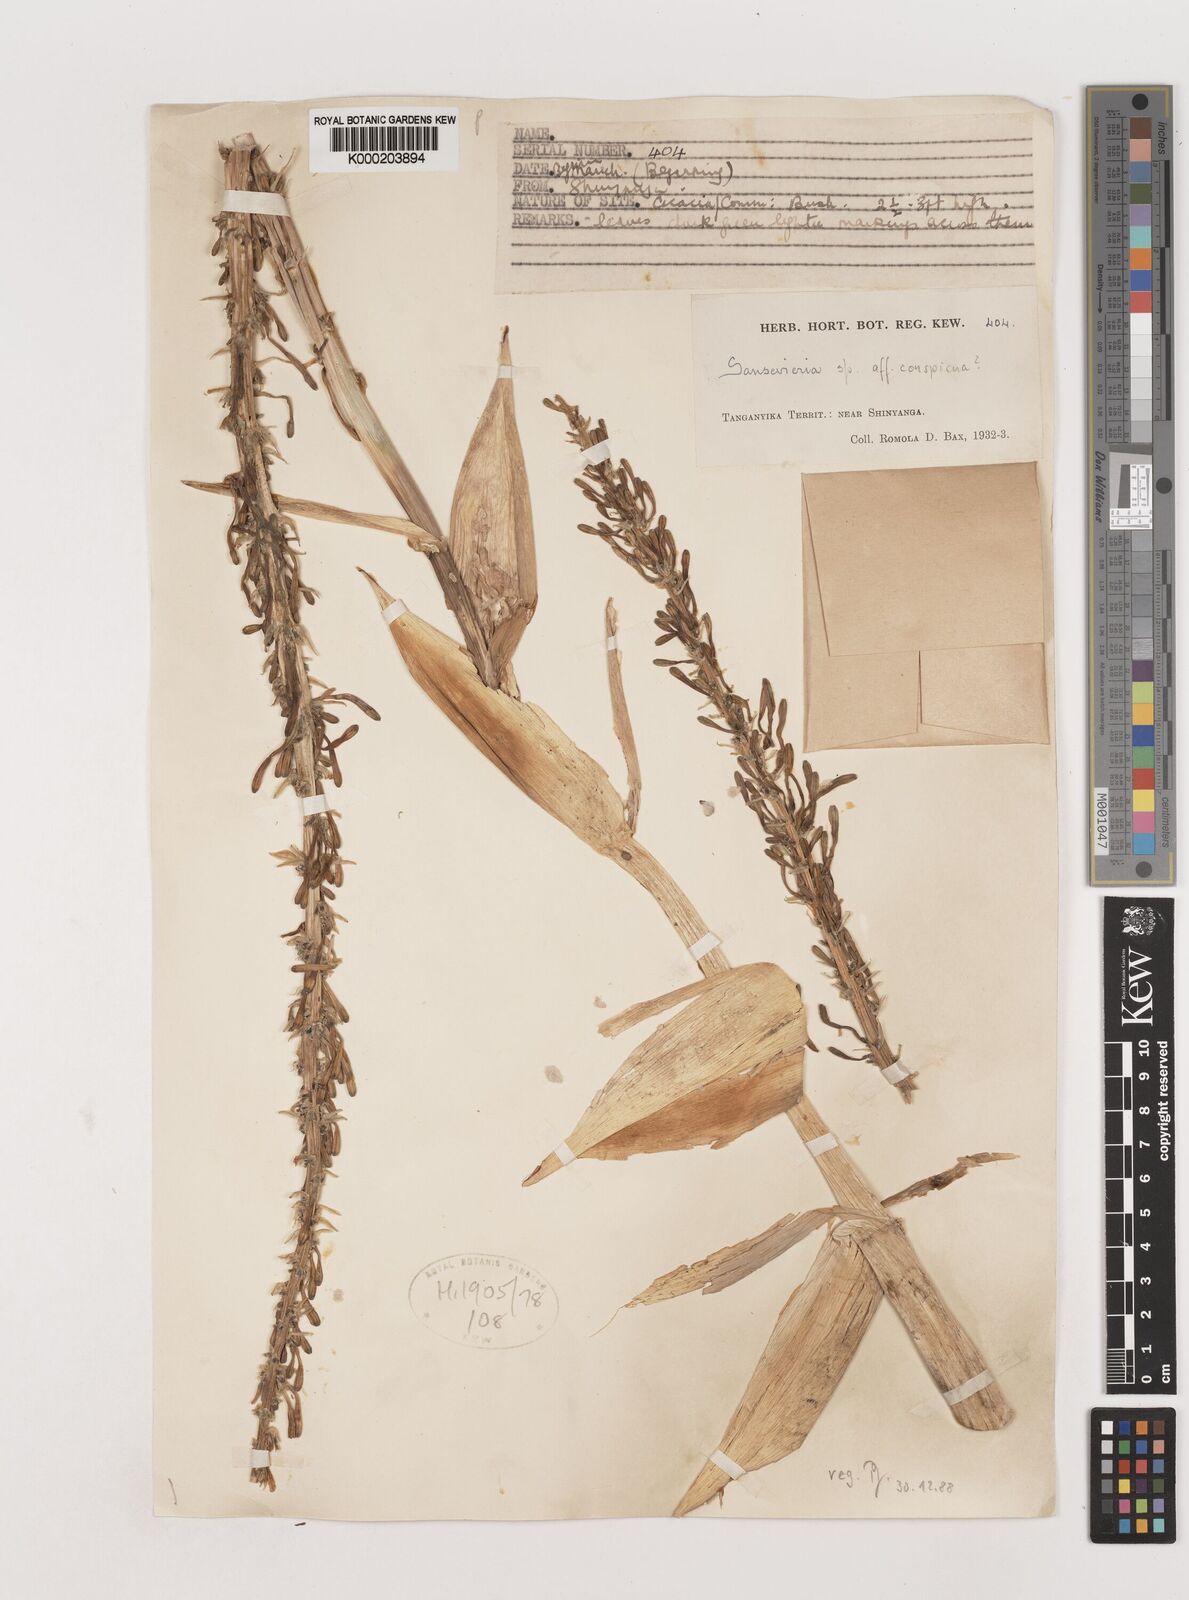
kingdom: Plantae
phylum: Tracheophyta
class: Liliopsida
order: Asparagales
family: Asparagaceae
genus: Dracaena
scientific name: Dracaena conspicua
